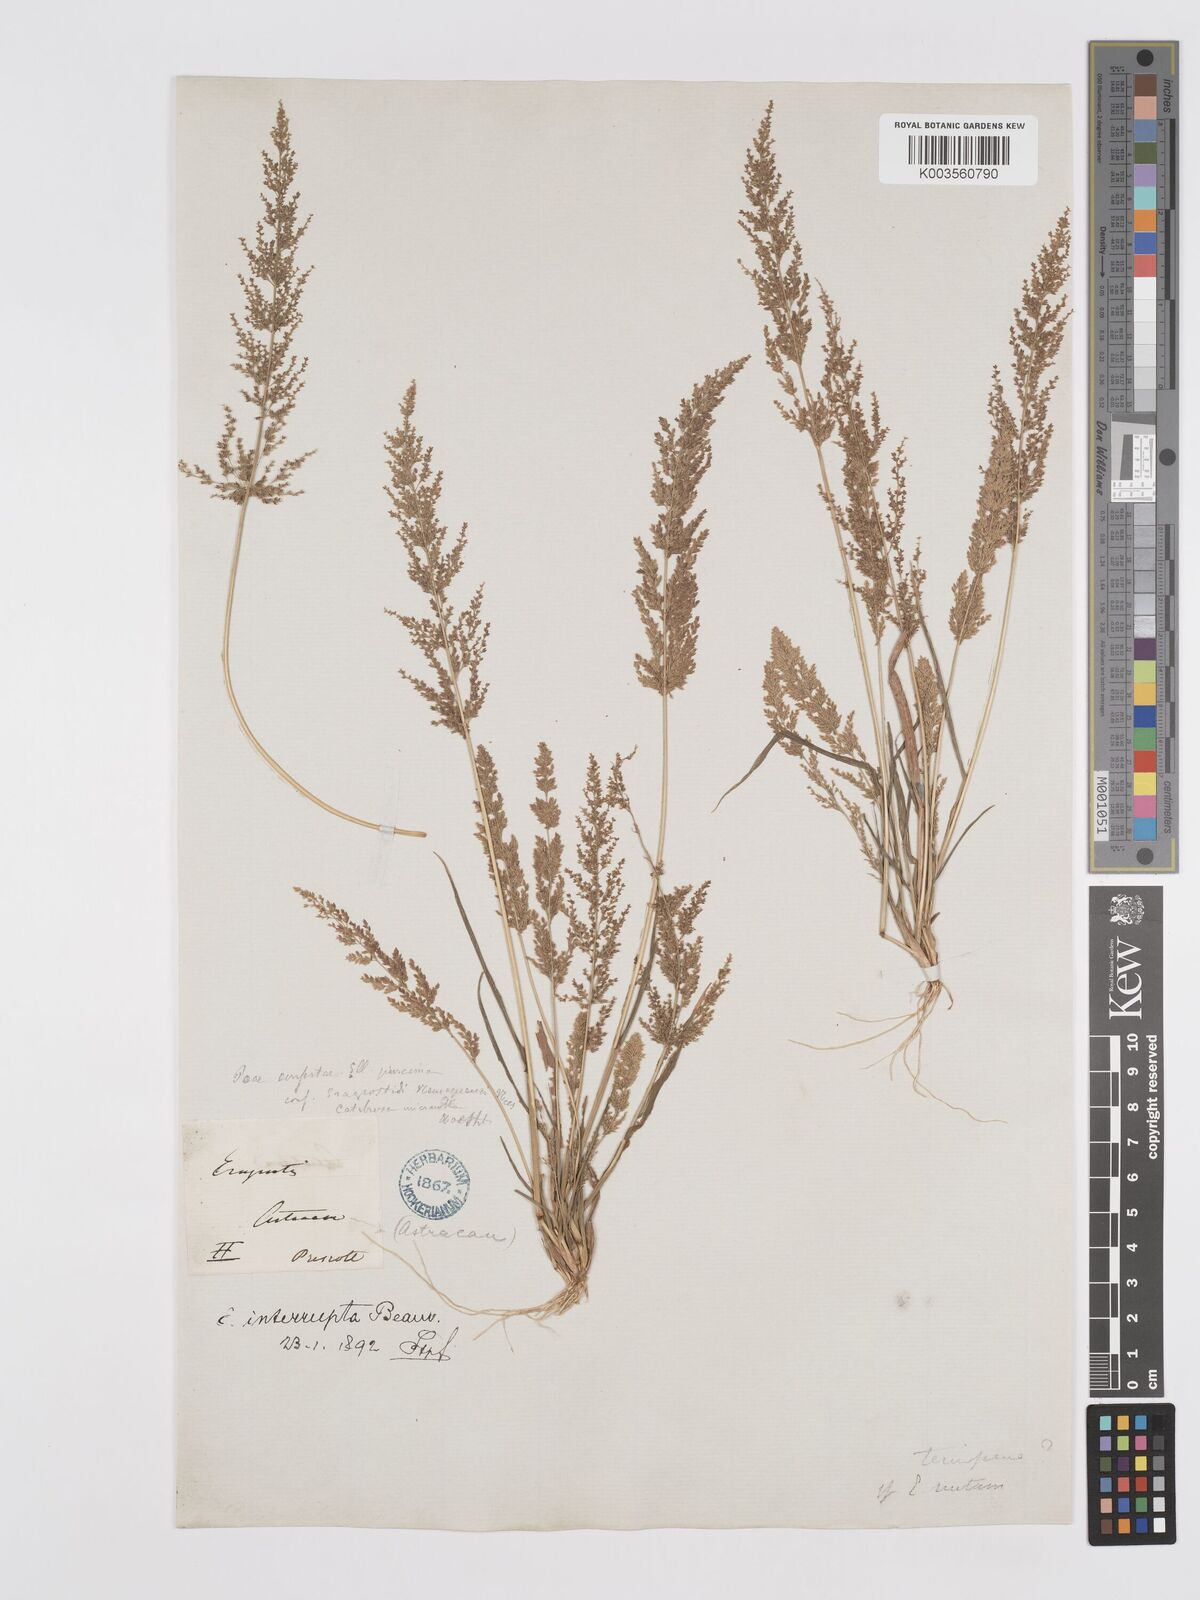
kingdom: Plantae
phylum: Tracheophyta
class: Liliopsida
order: Poales
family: Poaceae
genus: Eragrostis
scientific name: Eragrostis japonica
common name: Pond lovegrass
